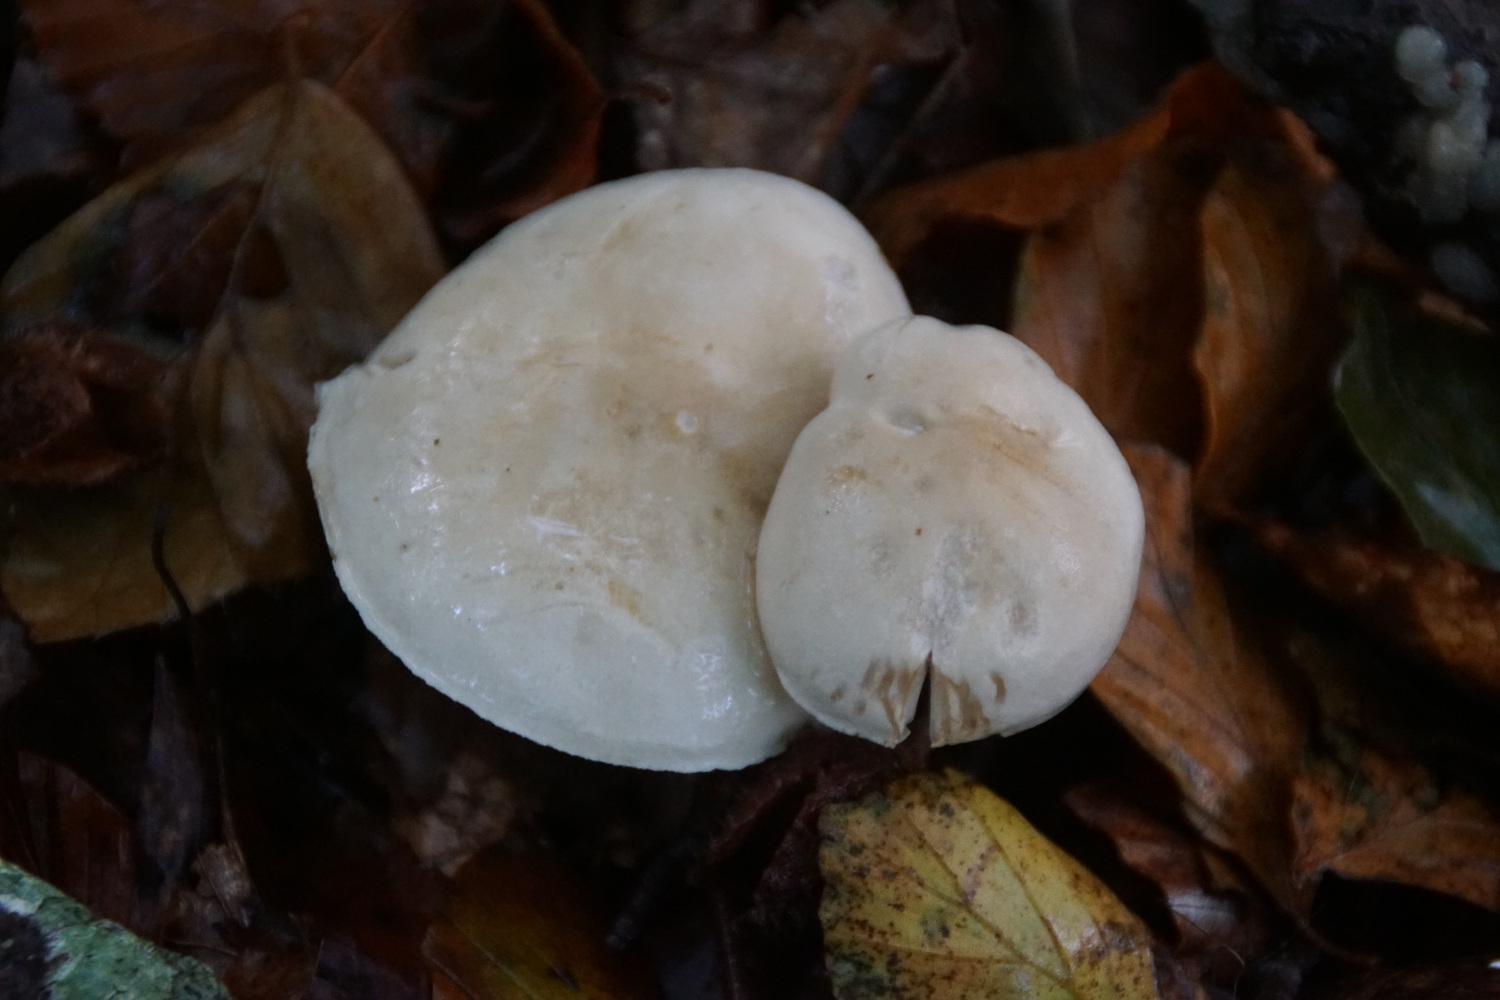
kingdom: Fungi
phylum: Basidiomycota
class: Agaricomycetes
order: Agaricales
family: Tricholomataceae
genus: Tricholoma
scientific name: Tricholoma lascivum
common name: stinkende ridderhat
